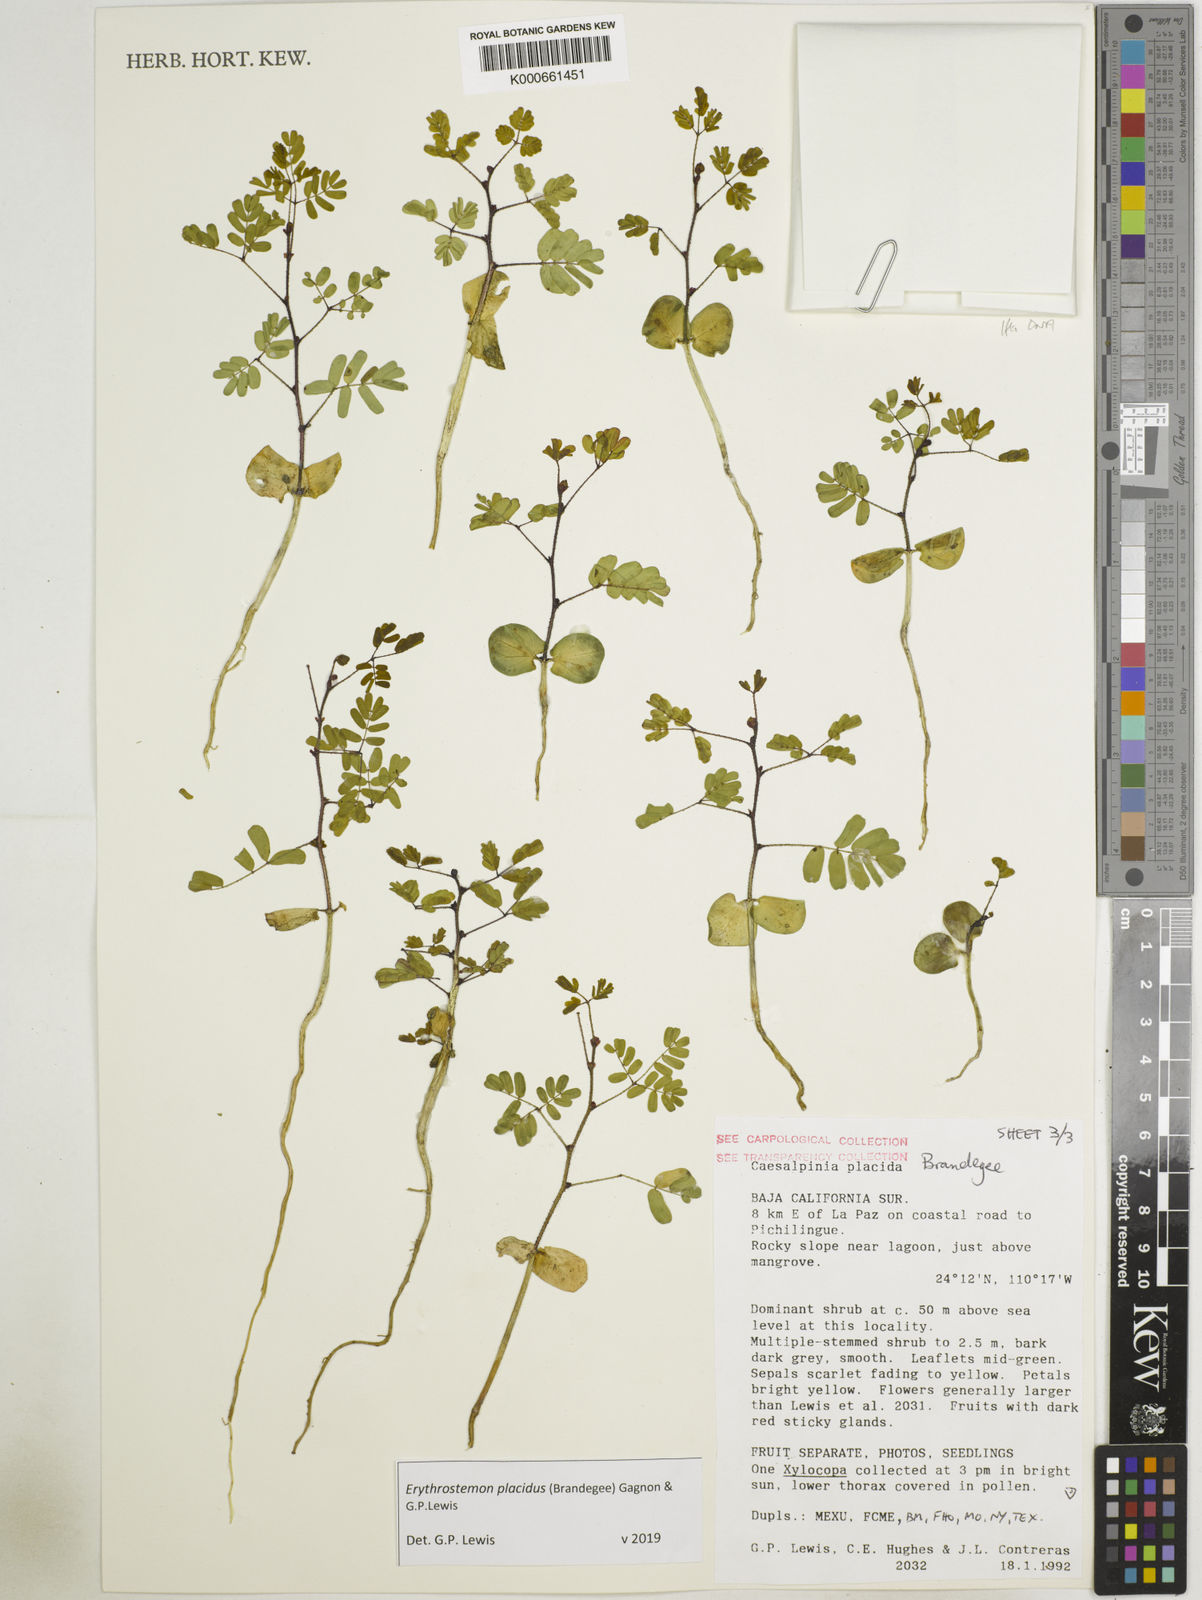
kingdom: Plantae
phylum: Tracheophyta
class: Magnoliopsida
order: Fabales
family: Fabaceae
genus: Erythrostemon
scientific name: Erythrostemon placidus
